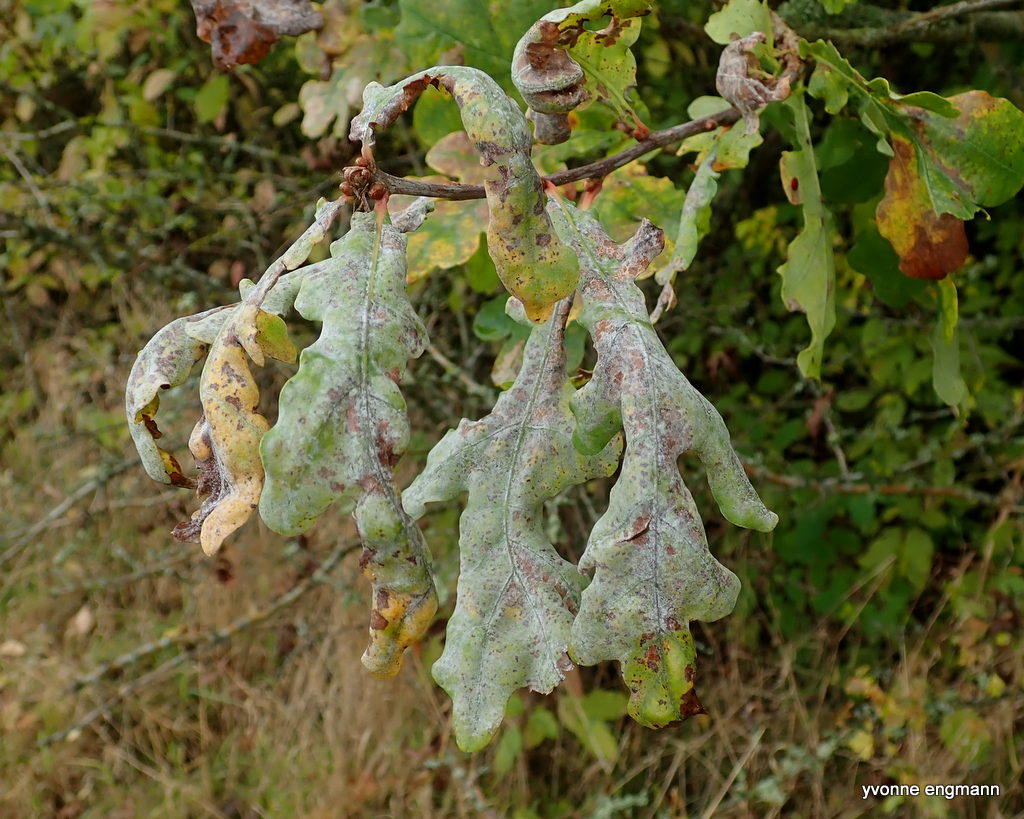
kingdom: Fungi
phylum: Ascomycota
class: Leotiomycetes
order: Helotiales
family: Erysiphaceae
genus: Erysiphe
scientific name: Erysiphe alphitoides
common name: ege-meldug
